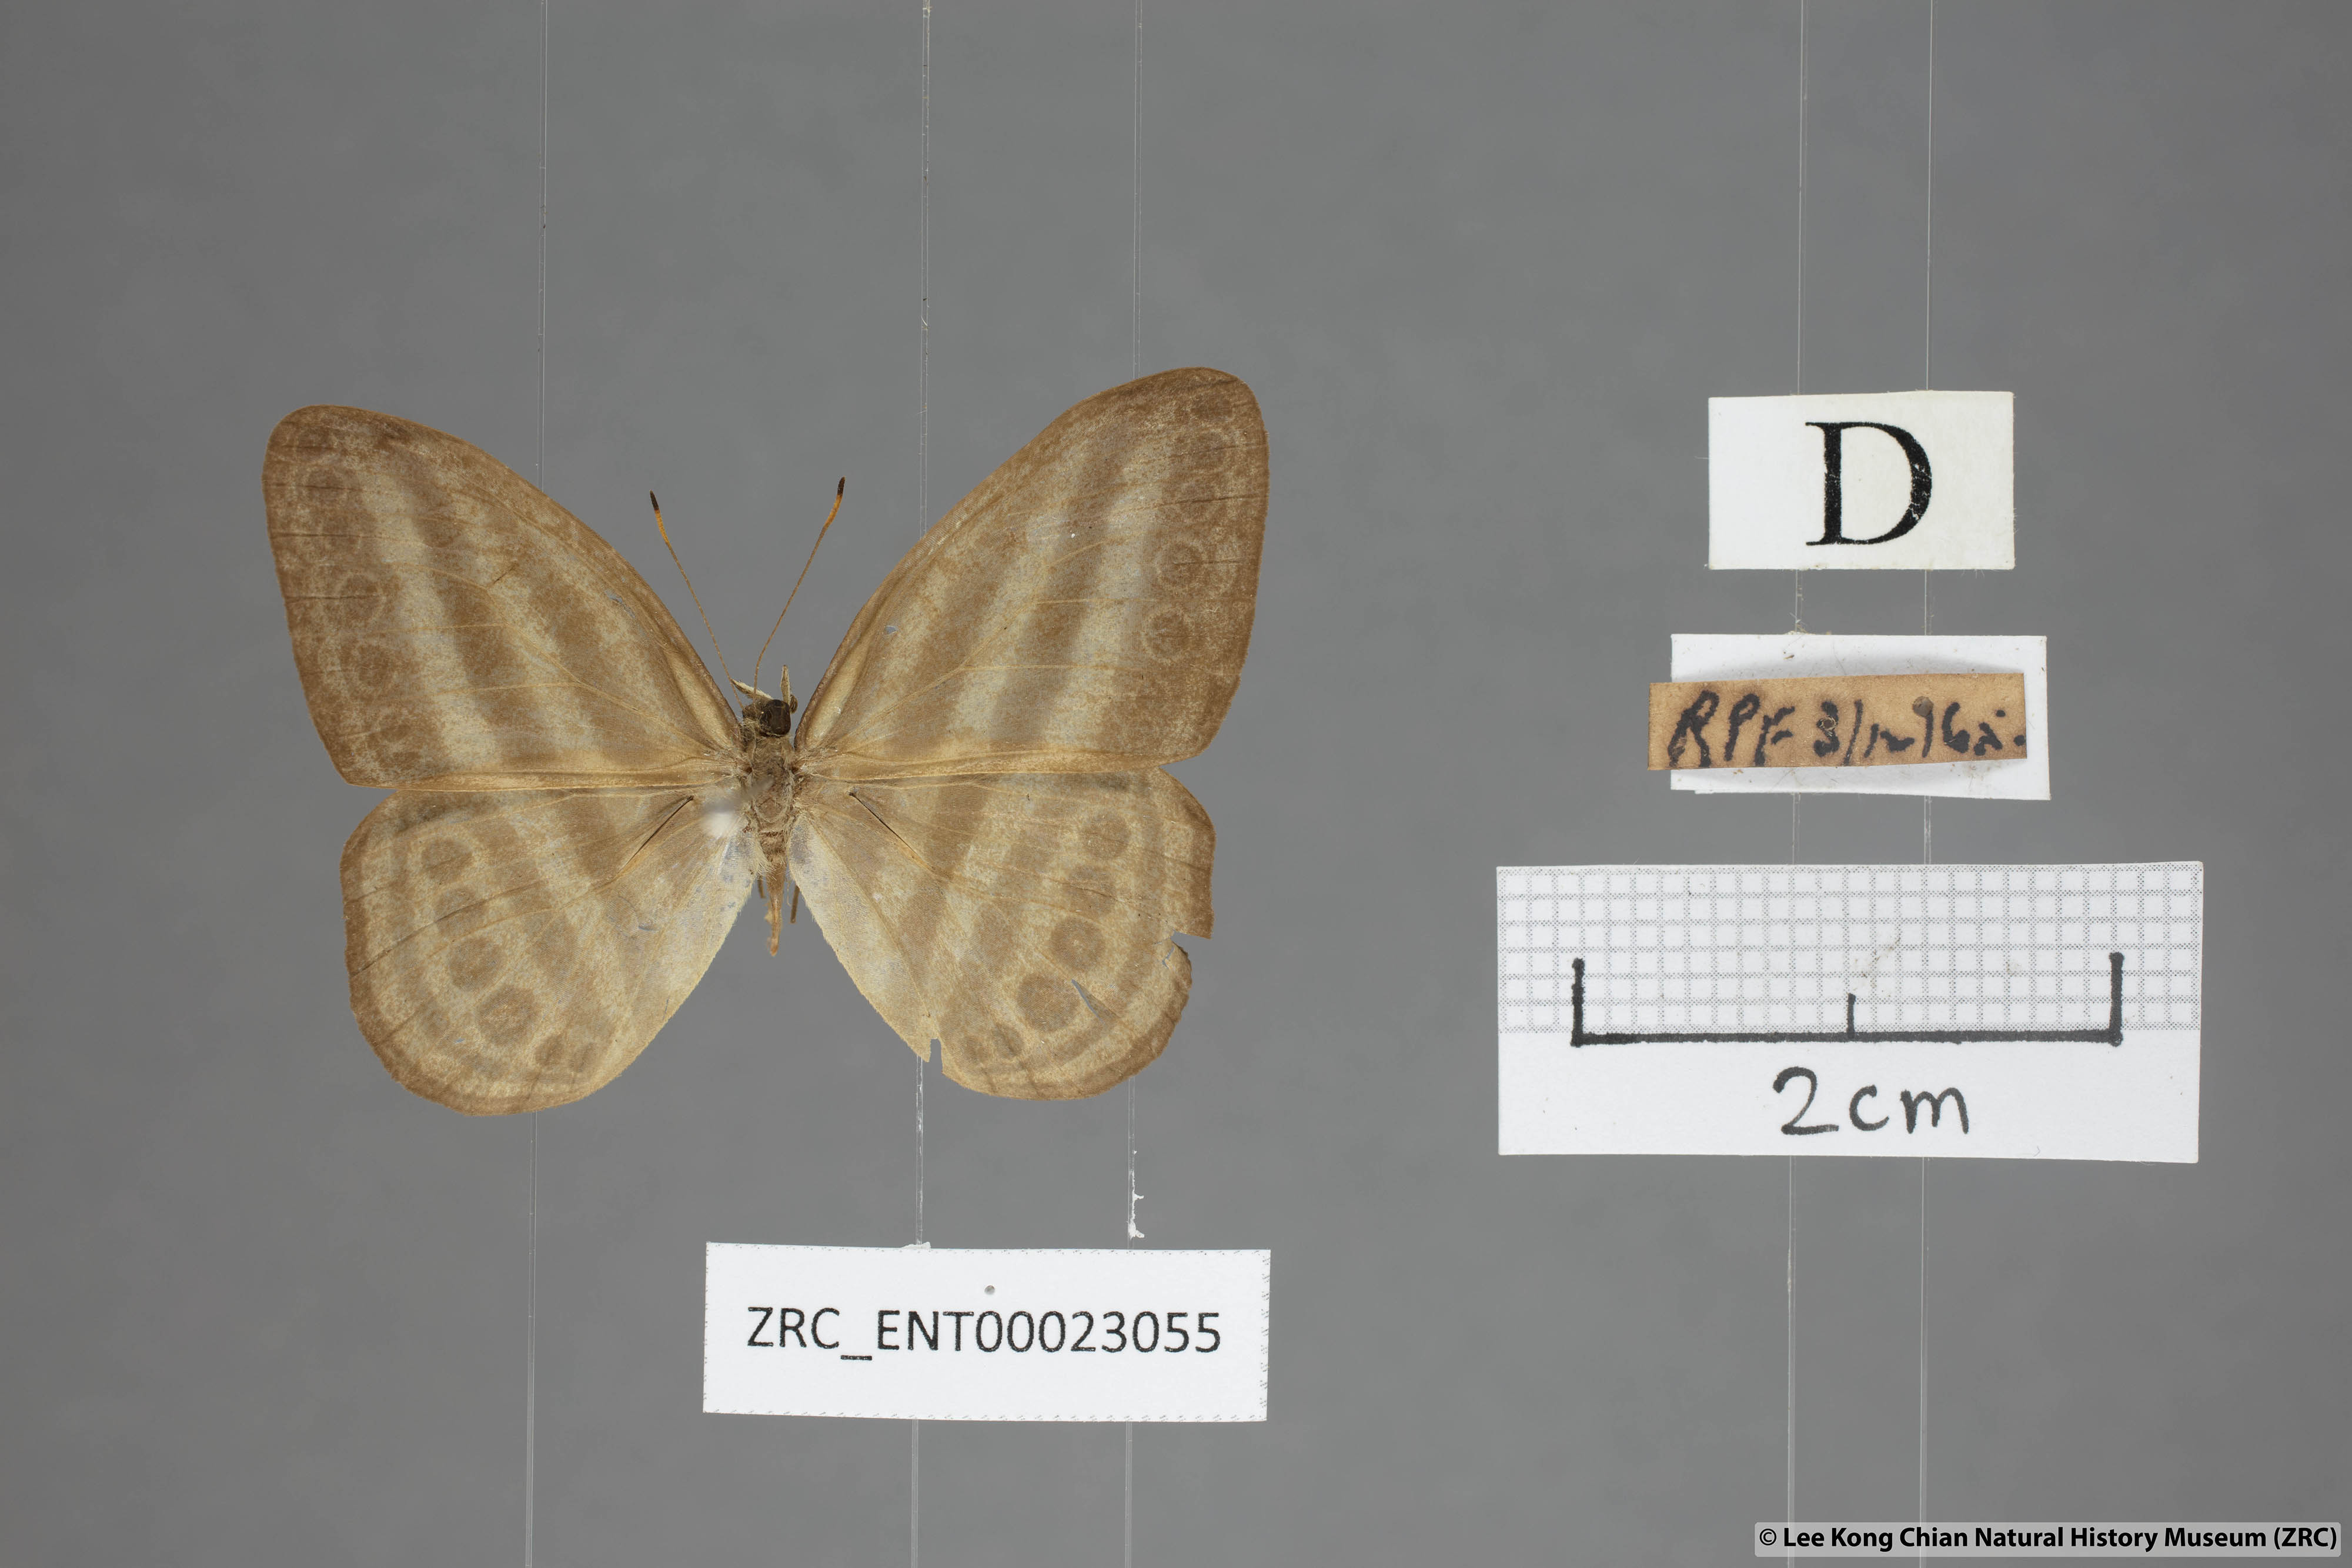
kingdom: Animalia
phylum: Arthropoda
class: Insecta
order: Lepidoptera
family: Nymphalidae
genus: Ragadia
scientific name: Ragadia makata
